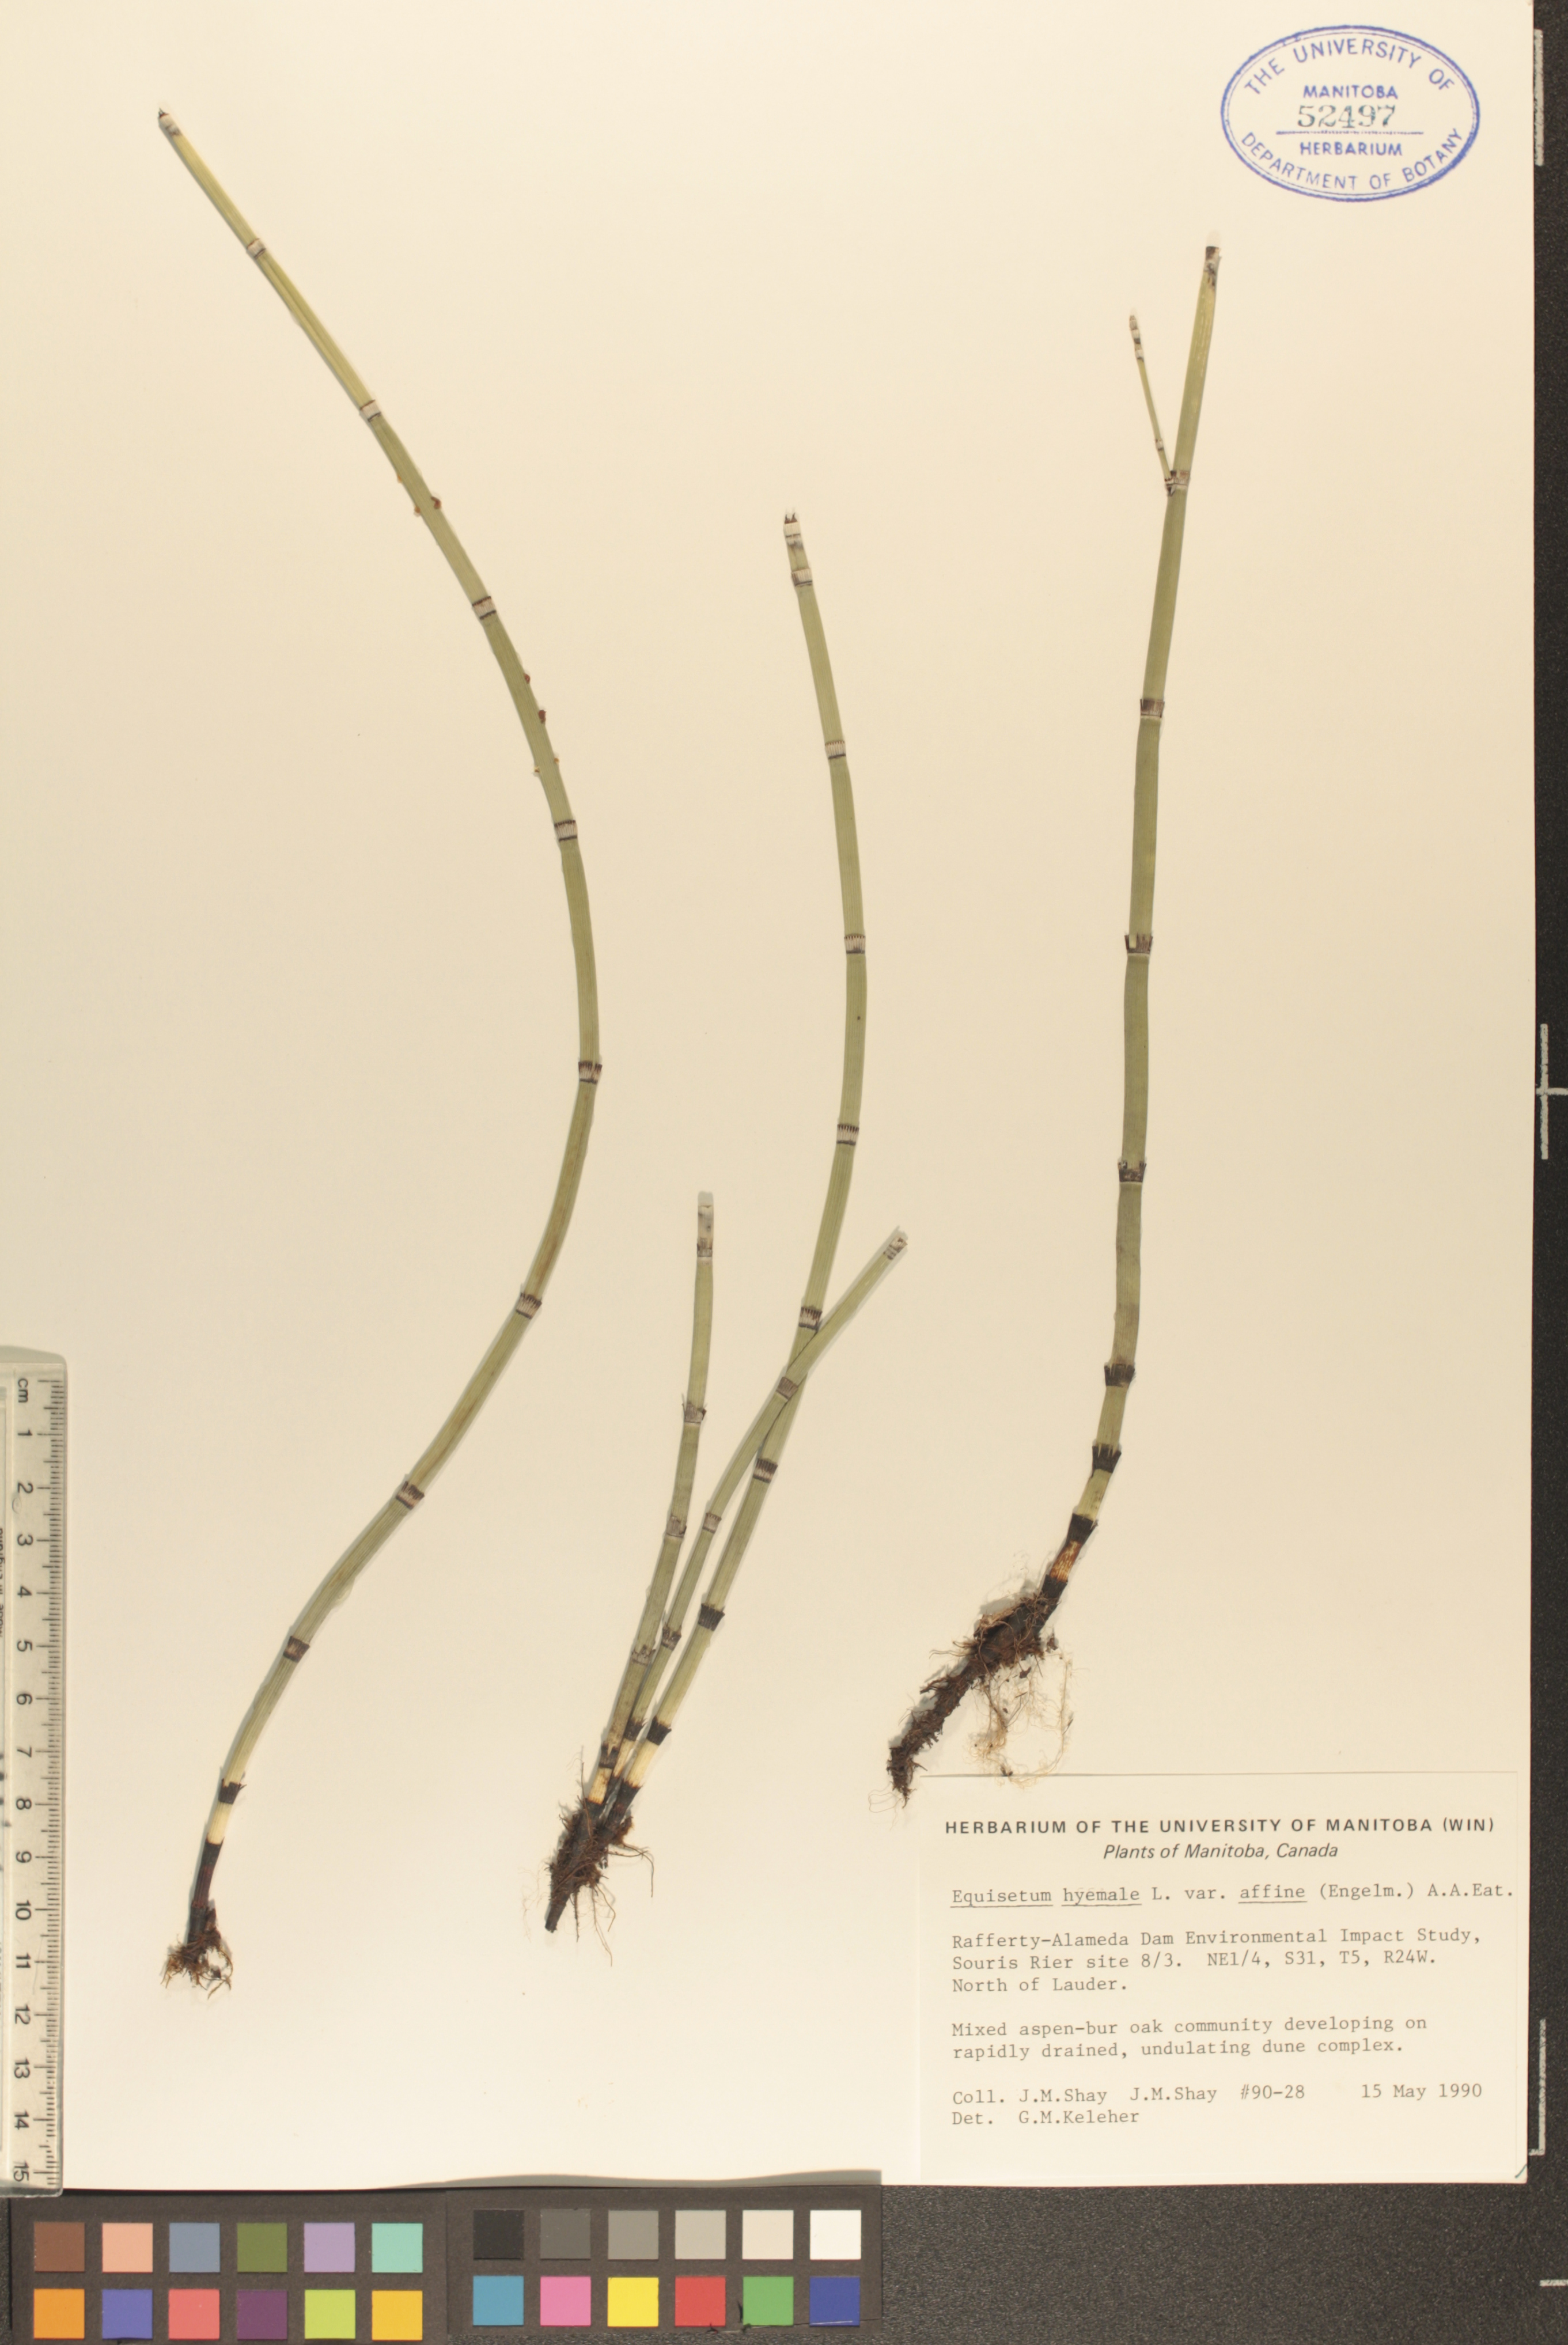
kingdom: Plantae
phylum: Tracheophyta
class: Polypodiopsida
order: Equisetales
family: Equisetaceae
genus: Equisetum
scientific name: Equisetum praealtum
